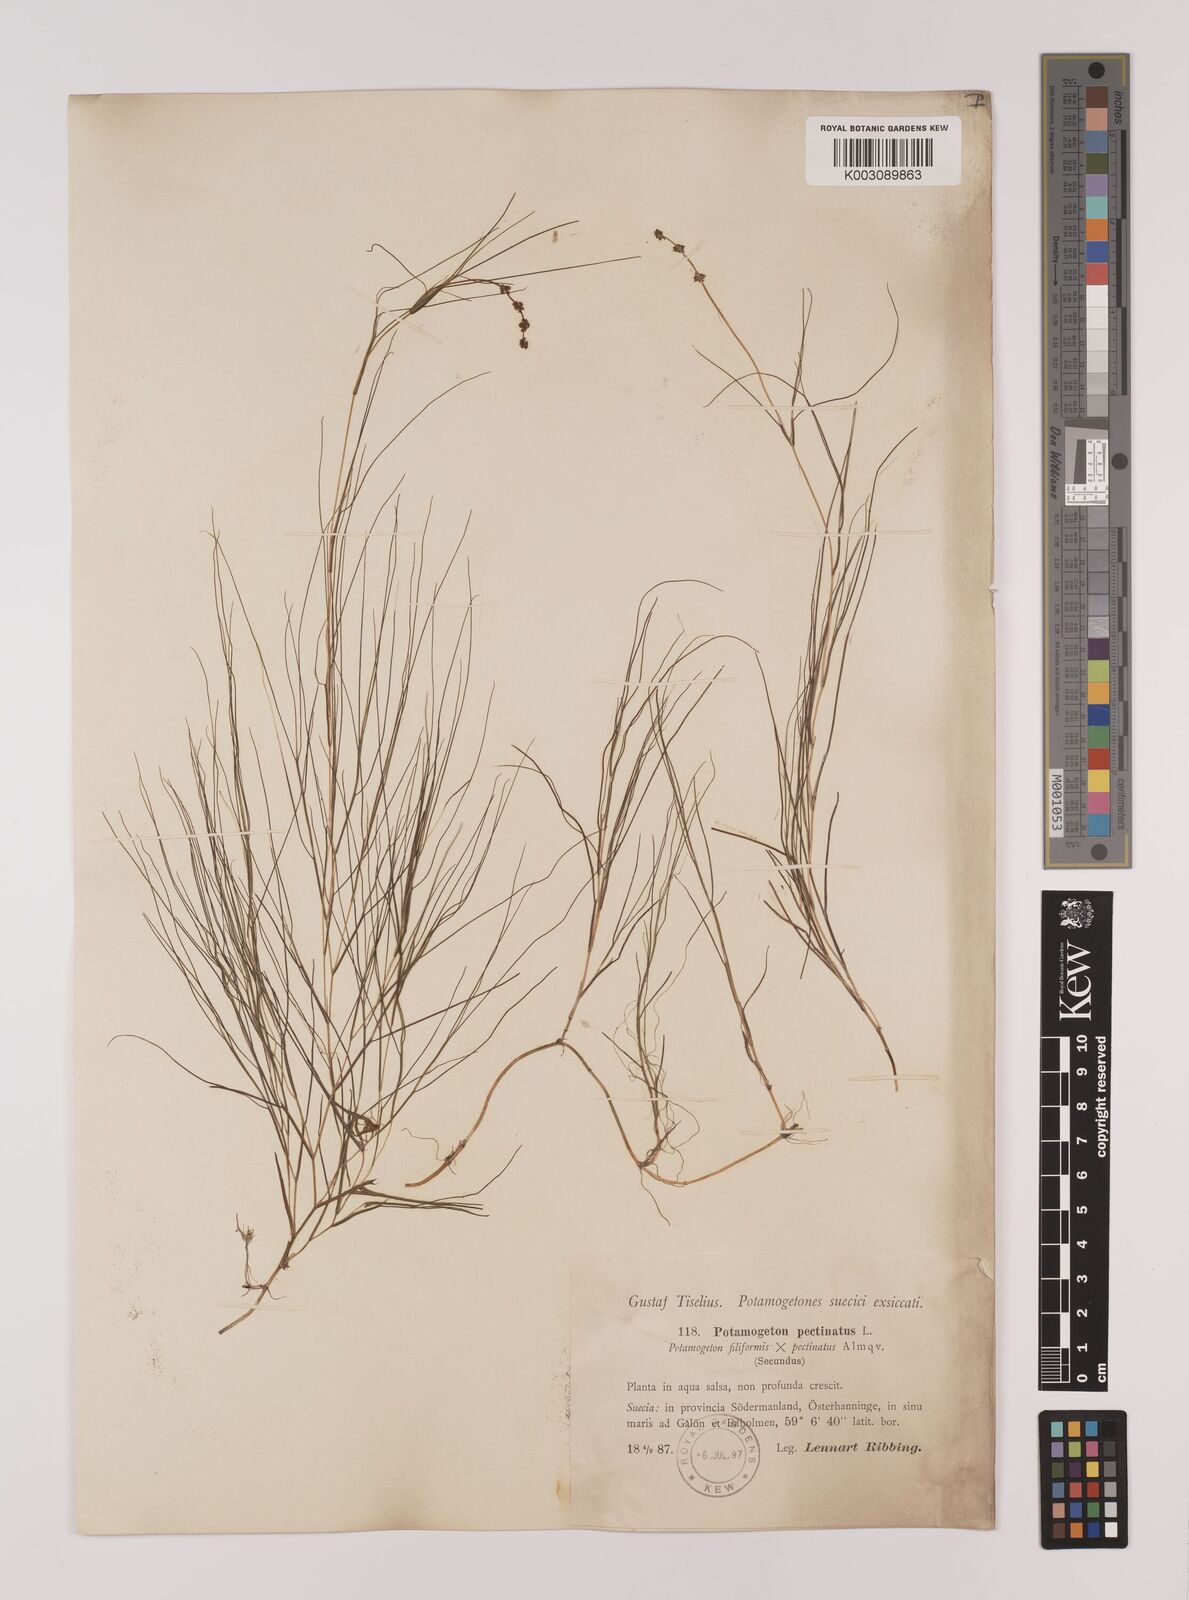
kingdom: Plantae
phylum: Tracheophyta
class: Liliopsida
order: Alismatales
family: Potamogetonaceae
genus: Stuckenia
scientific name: Stuckenia pectinata
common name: Sago pondweed
